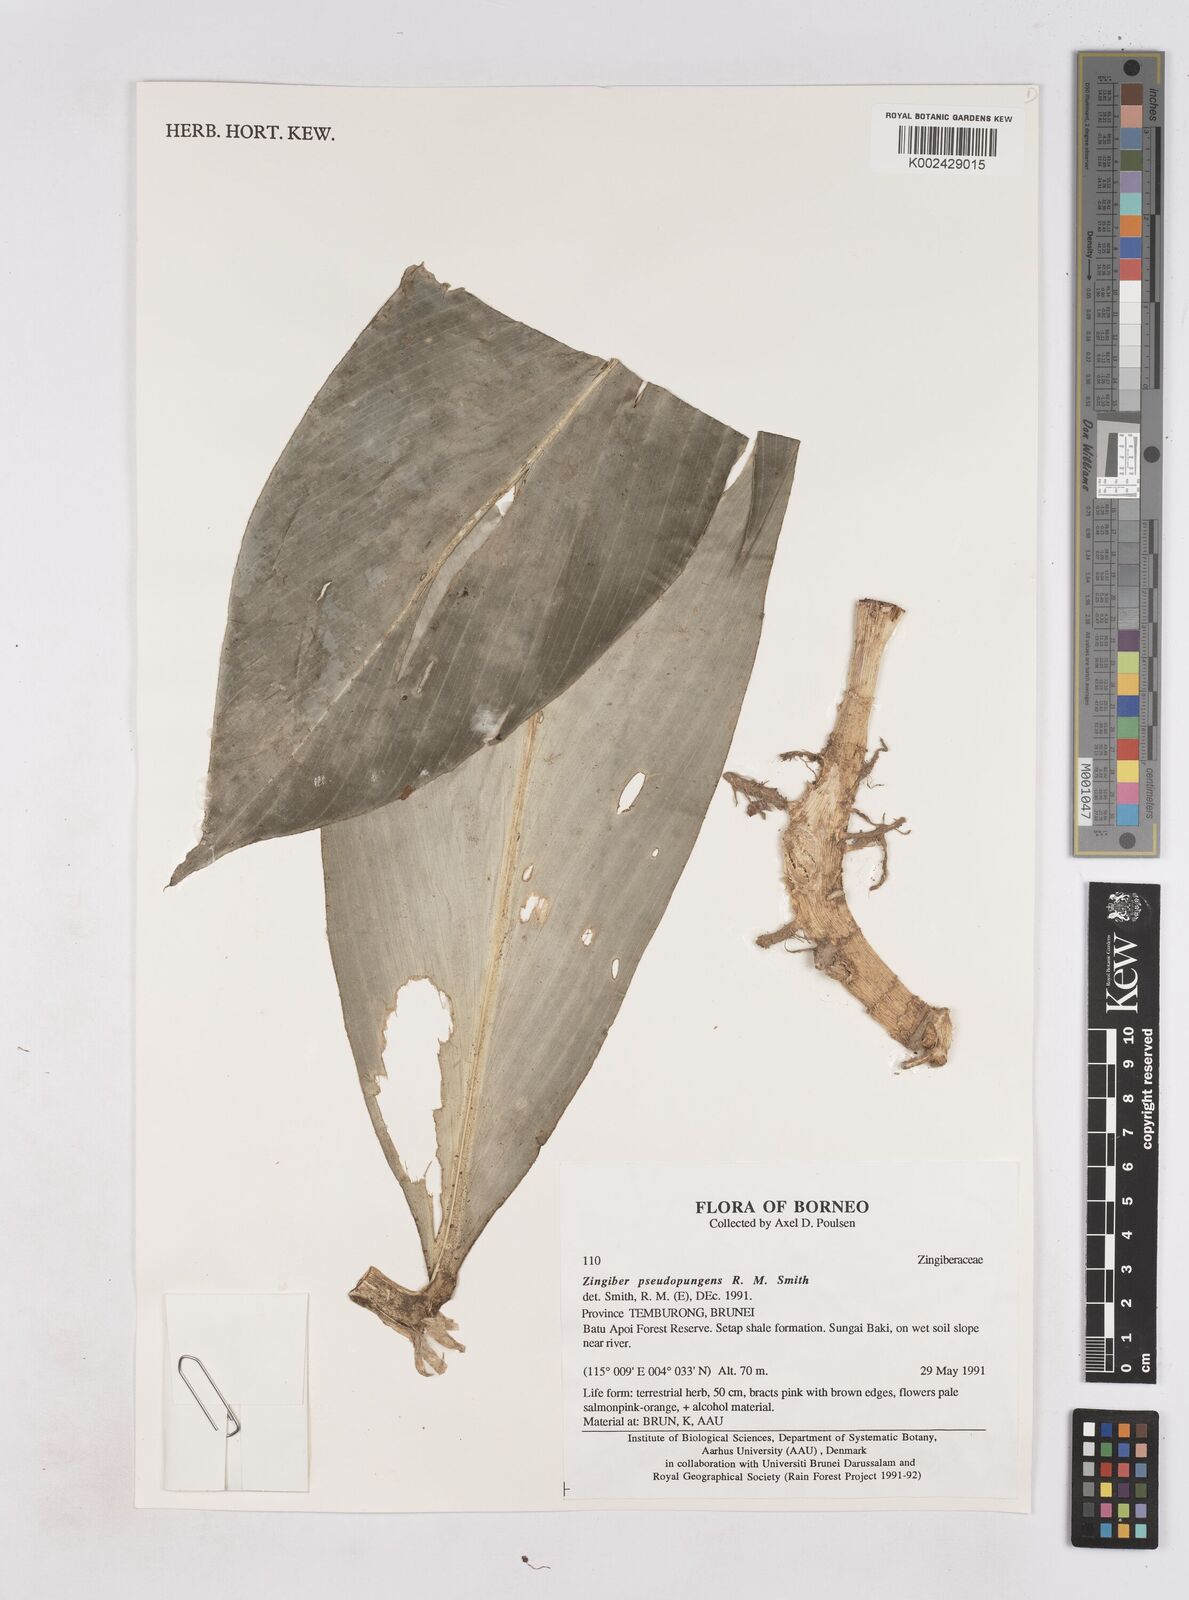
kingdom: Plantae
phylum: Tracheophyta
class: Liliopsida
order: Zingiberales
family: Zingiberaceae
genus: Zingiber
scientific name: Zingiber pseudopungens
